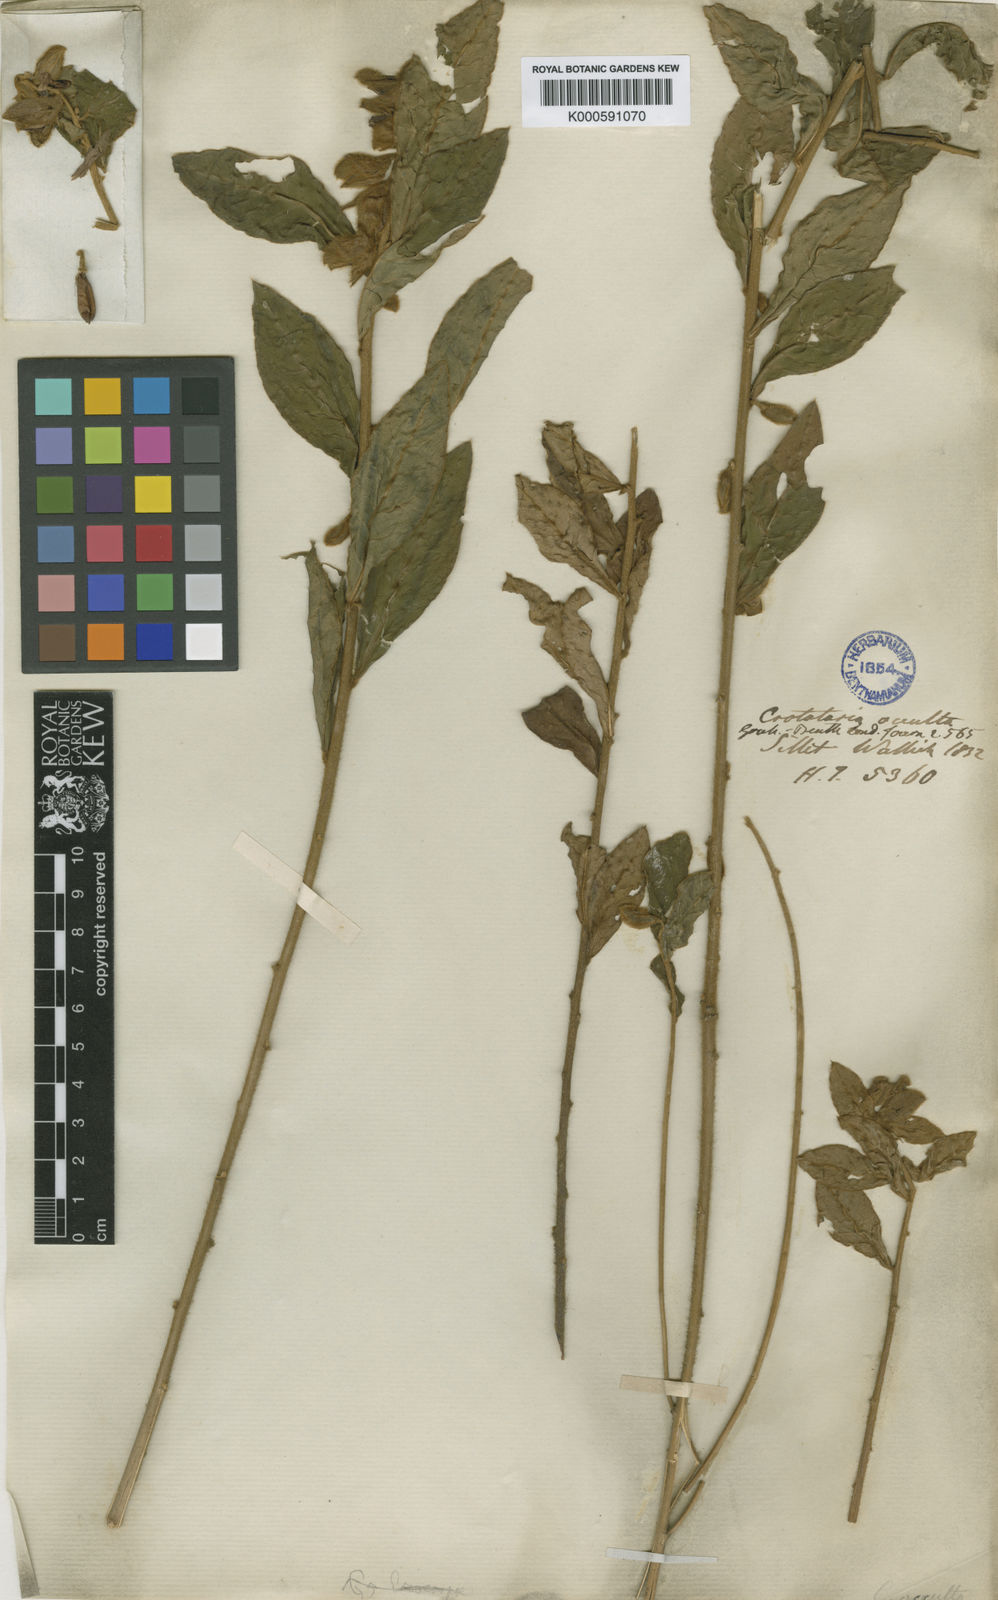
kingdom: Plantae
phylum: Tracheophyta
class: Magnoliopsida
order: Fabales
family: Fabaceae
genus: Crotalaria
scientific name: Crotalaria occulta
